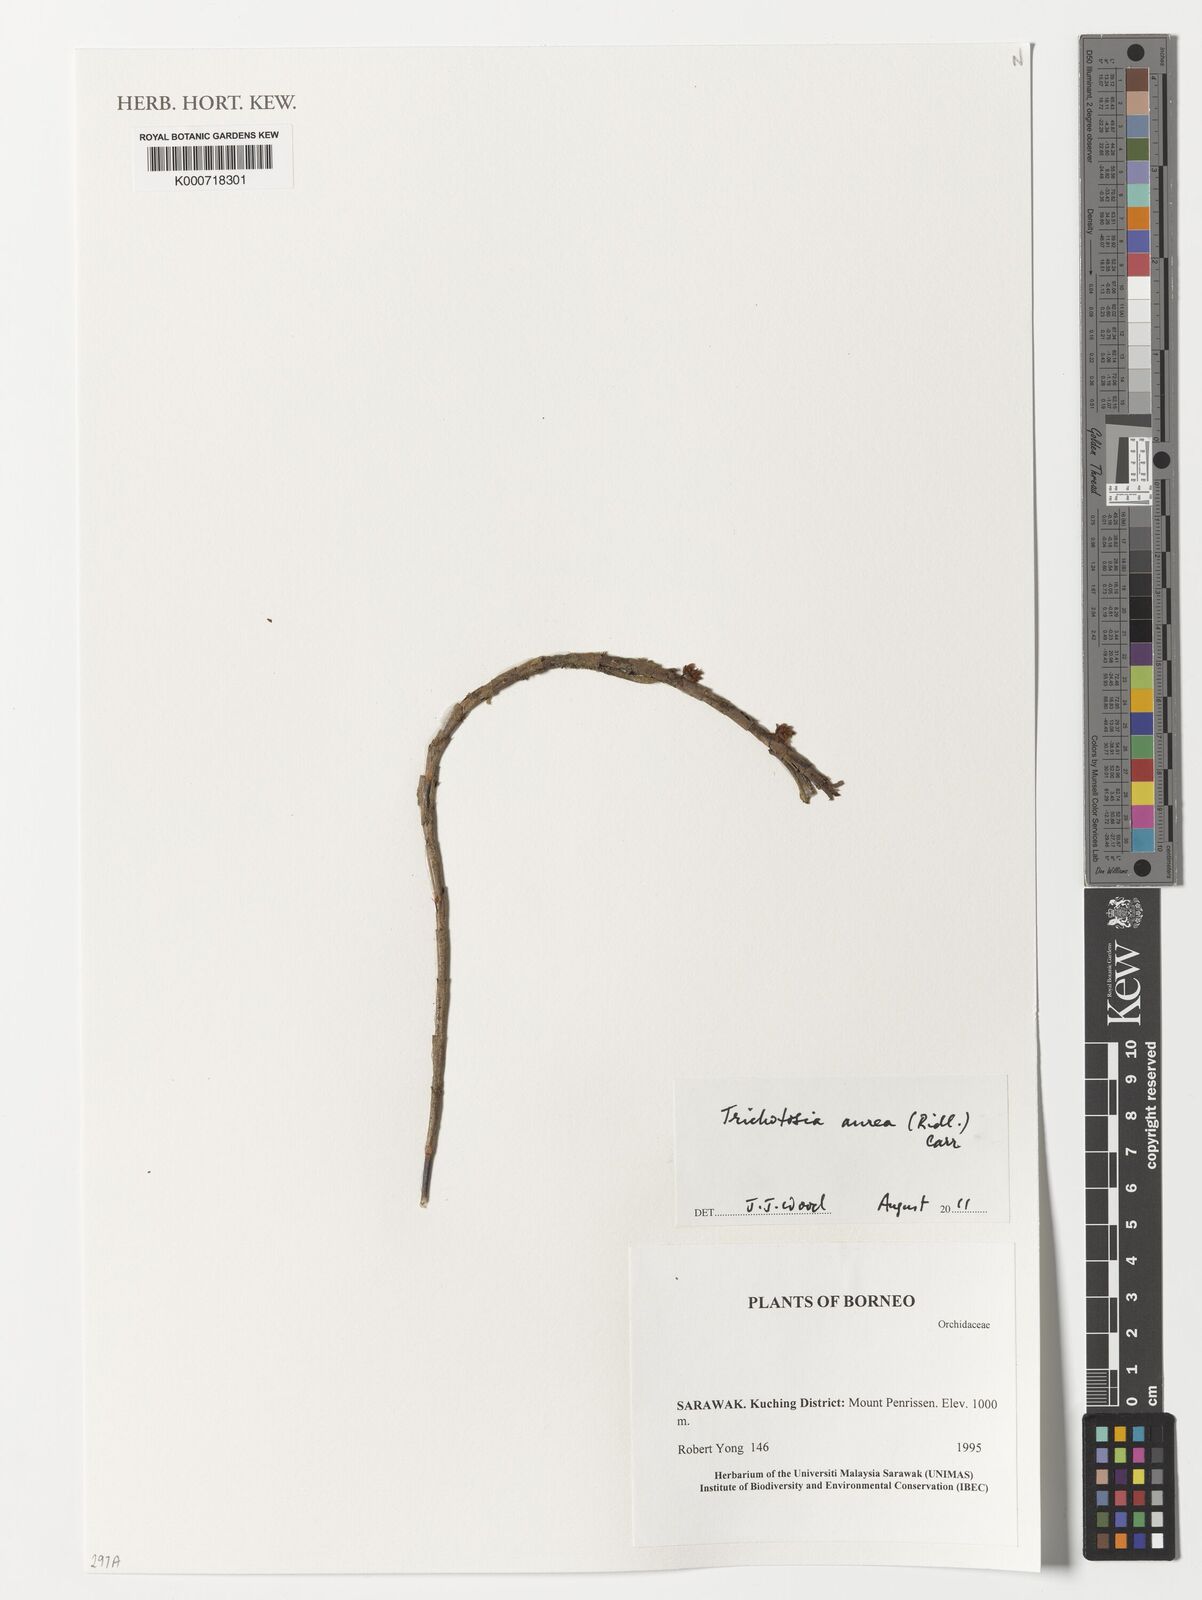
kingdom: Plantae
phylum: Tracheophyta
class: Liliopsida
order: Asparagales
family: Orchidaceae
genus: Trichotosia
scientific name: Trichotosia aurea
